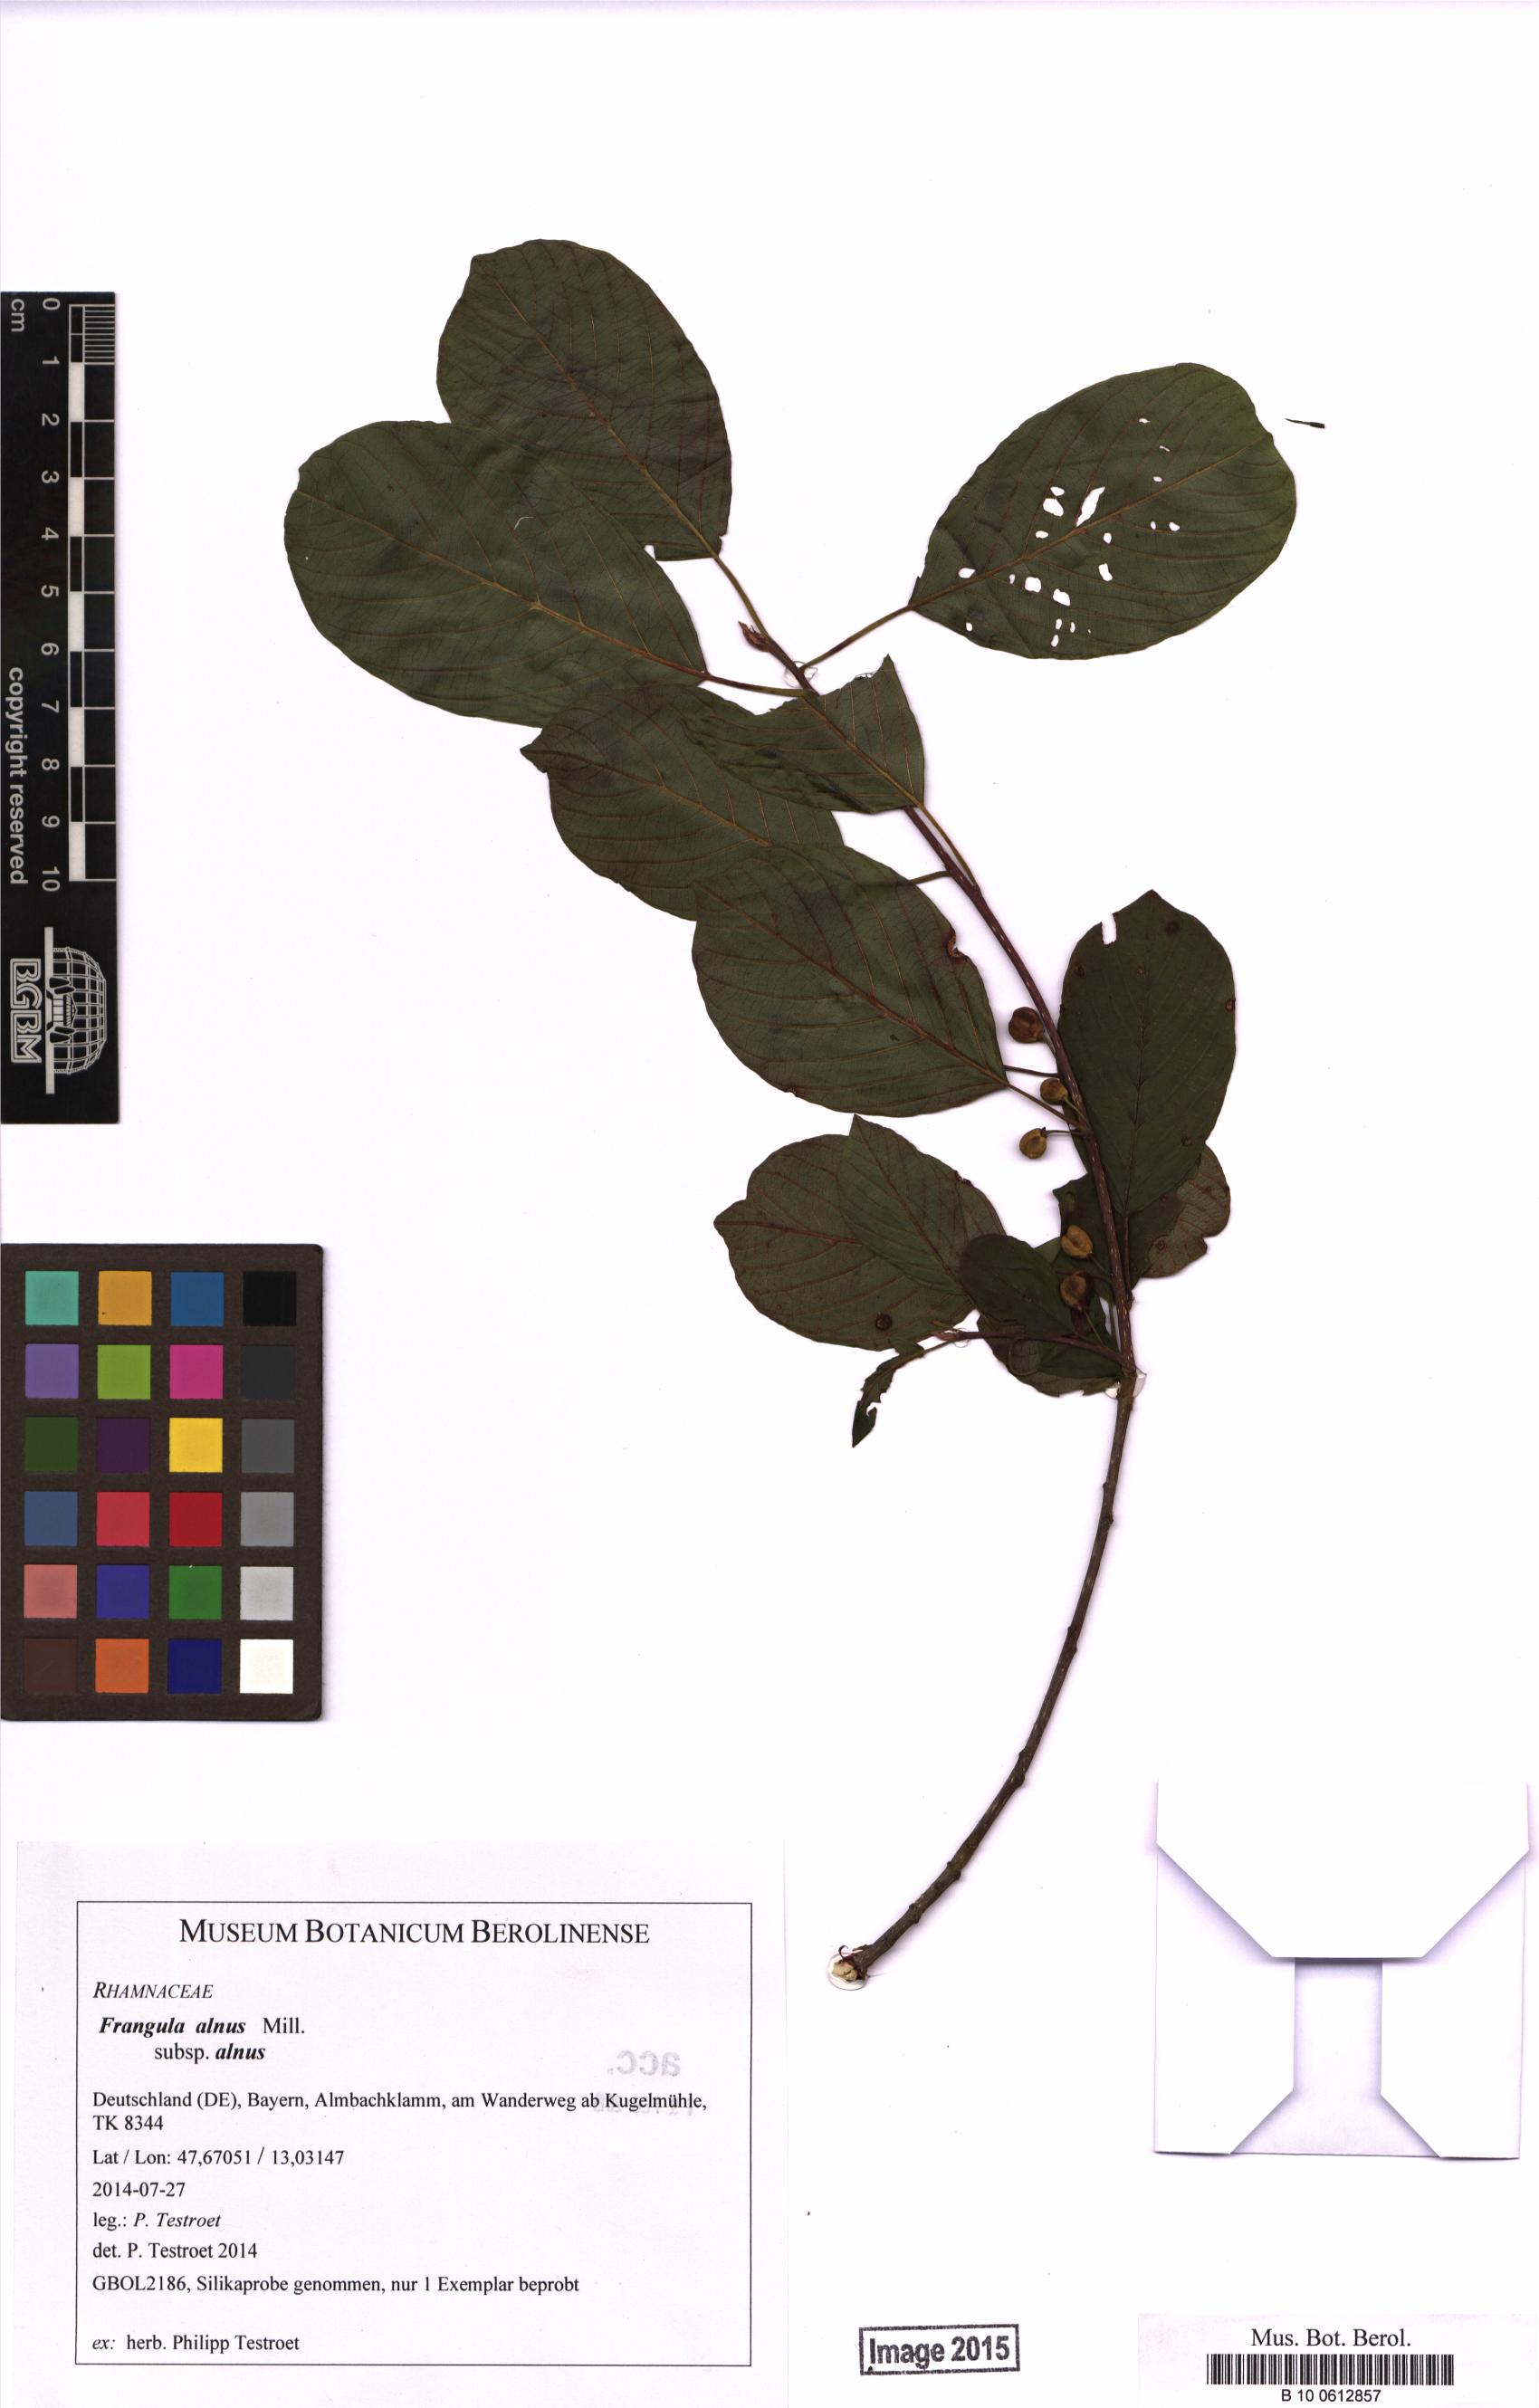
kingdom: Plantae
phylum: Tracheophyta
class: Magnoliopsida
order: Rosales
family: Rhamnaceae
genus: Frangula
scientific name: Frangula alnus
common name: Alder buckthorn
